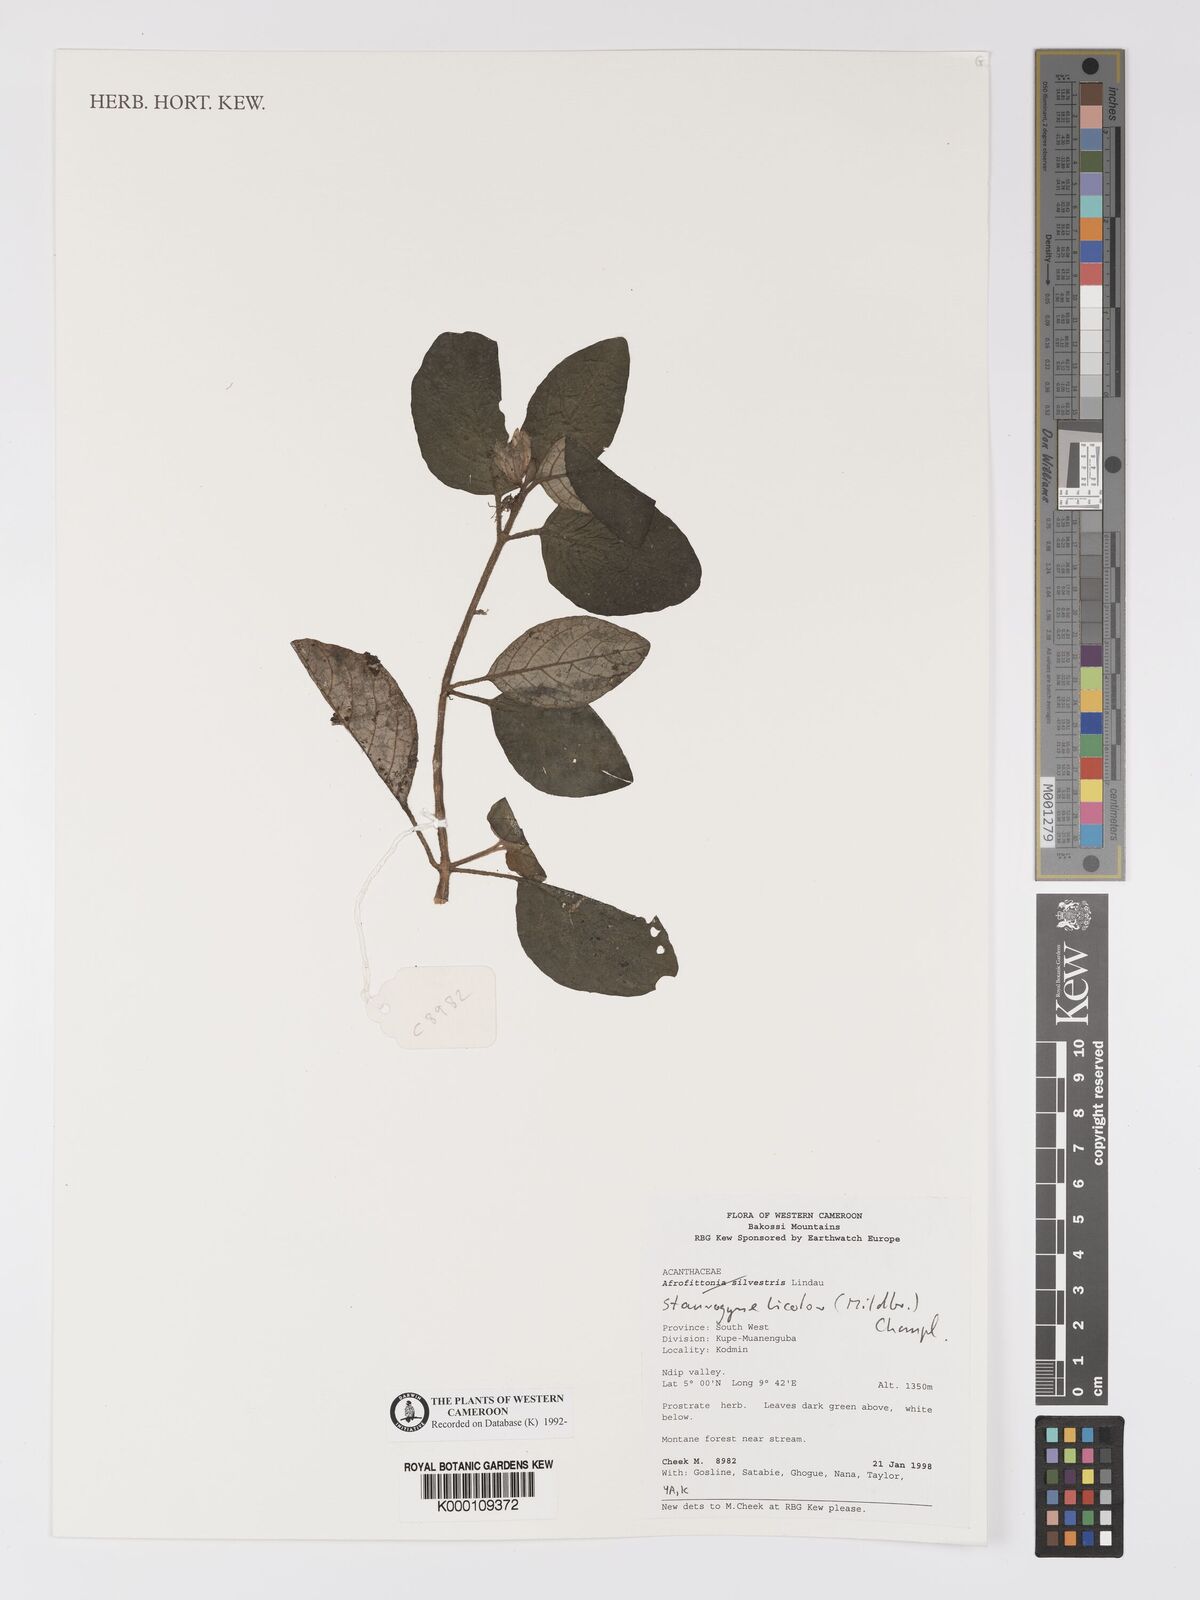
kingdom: Plantae
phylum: Tracheophyta
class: Magnoliopsida
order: Lamiales
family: Acanthaceae
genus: Staurogyne
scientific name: Staurogyne bicolor
